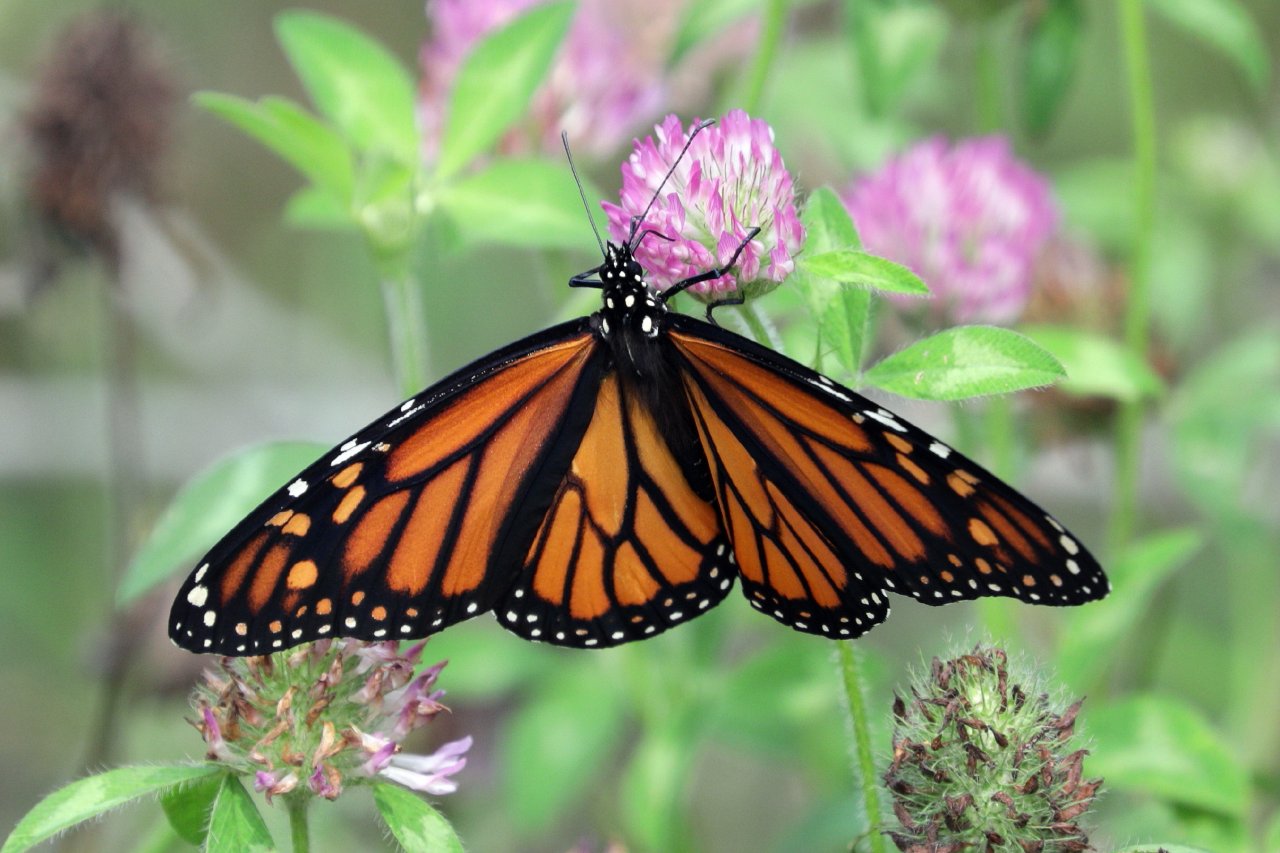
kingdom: Animalia
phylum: Arthropoda
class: Insecta
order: Lepidoptera
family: Nymphalidae
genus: Danaus
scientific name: Danaus plexippus
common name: Monarch
